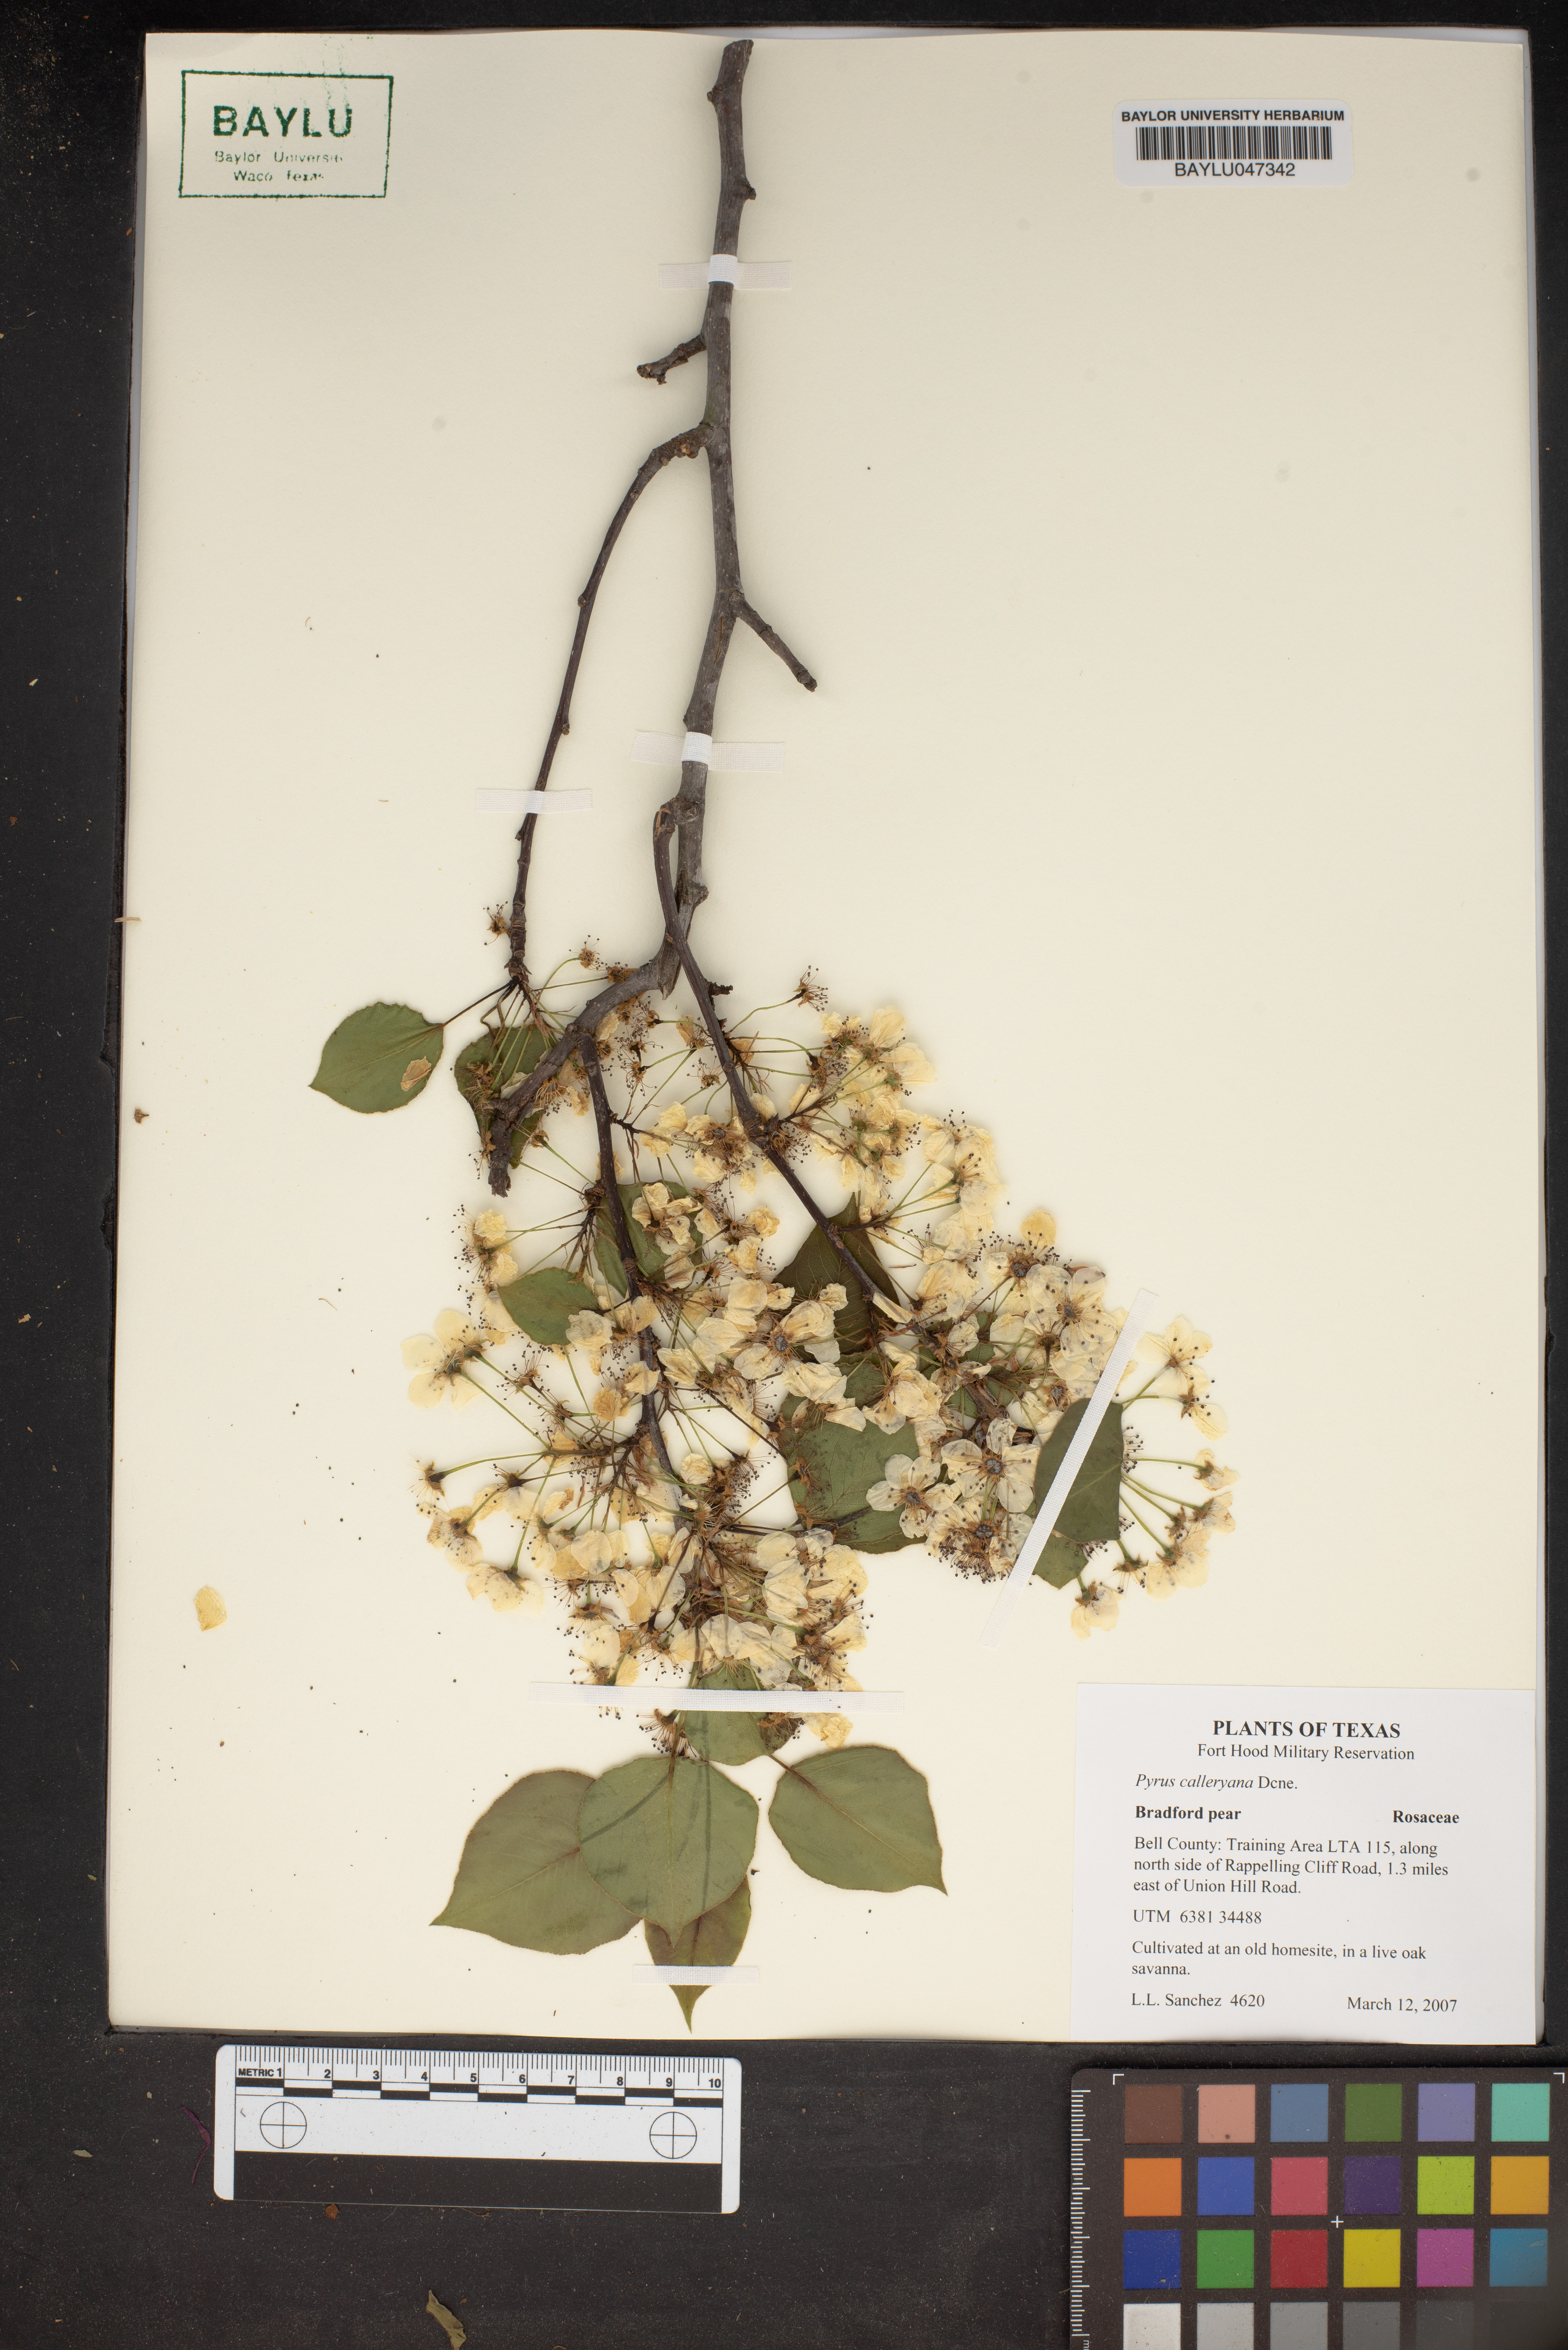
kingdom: Plantae
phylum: Tracheophyta
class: Magnoliopsida
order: Rosales
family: Rosaceae
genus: Pyrus
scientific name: Pyrus calleryana
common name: Callery pear
